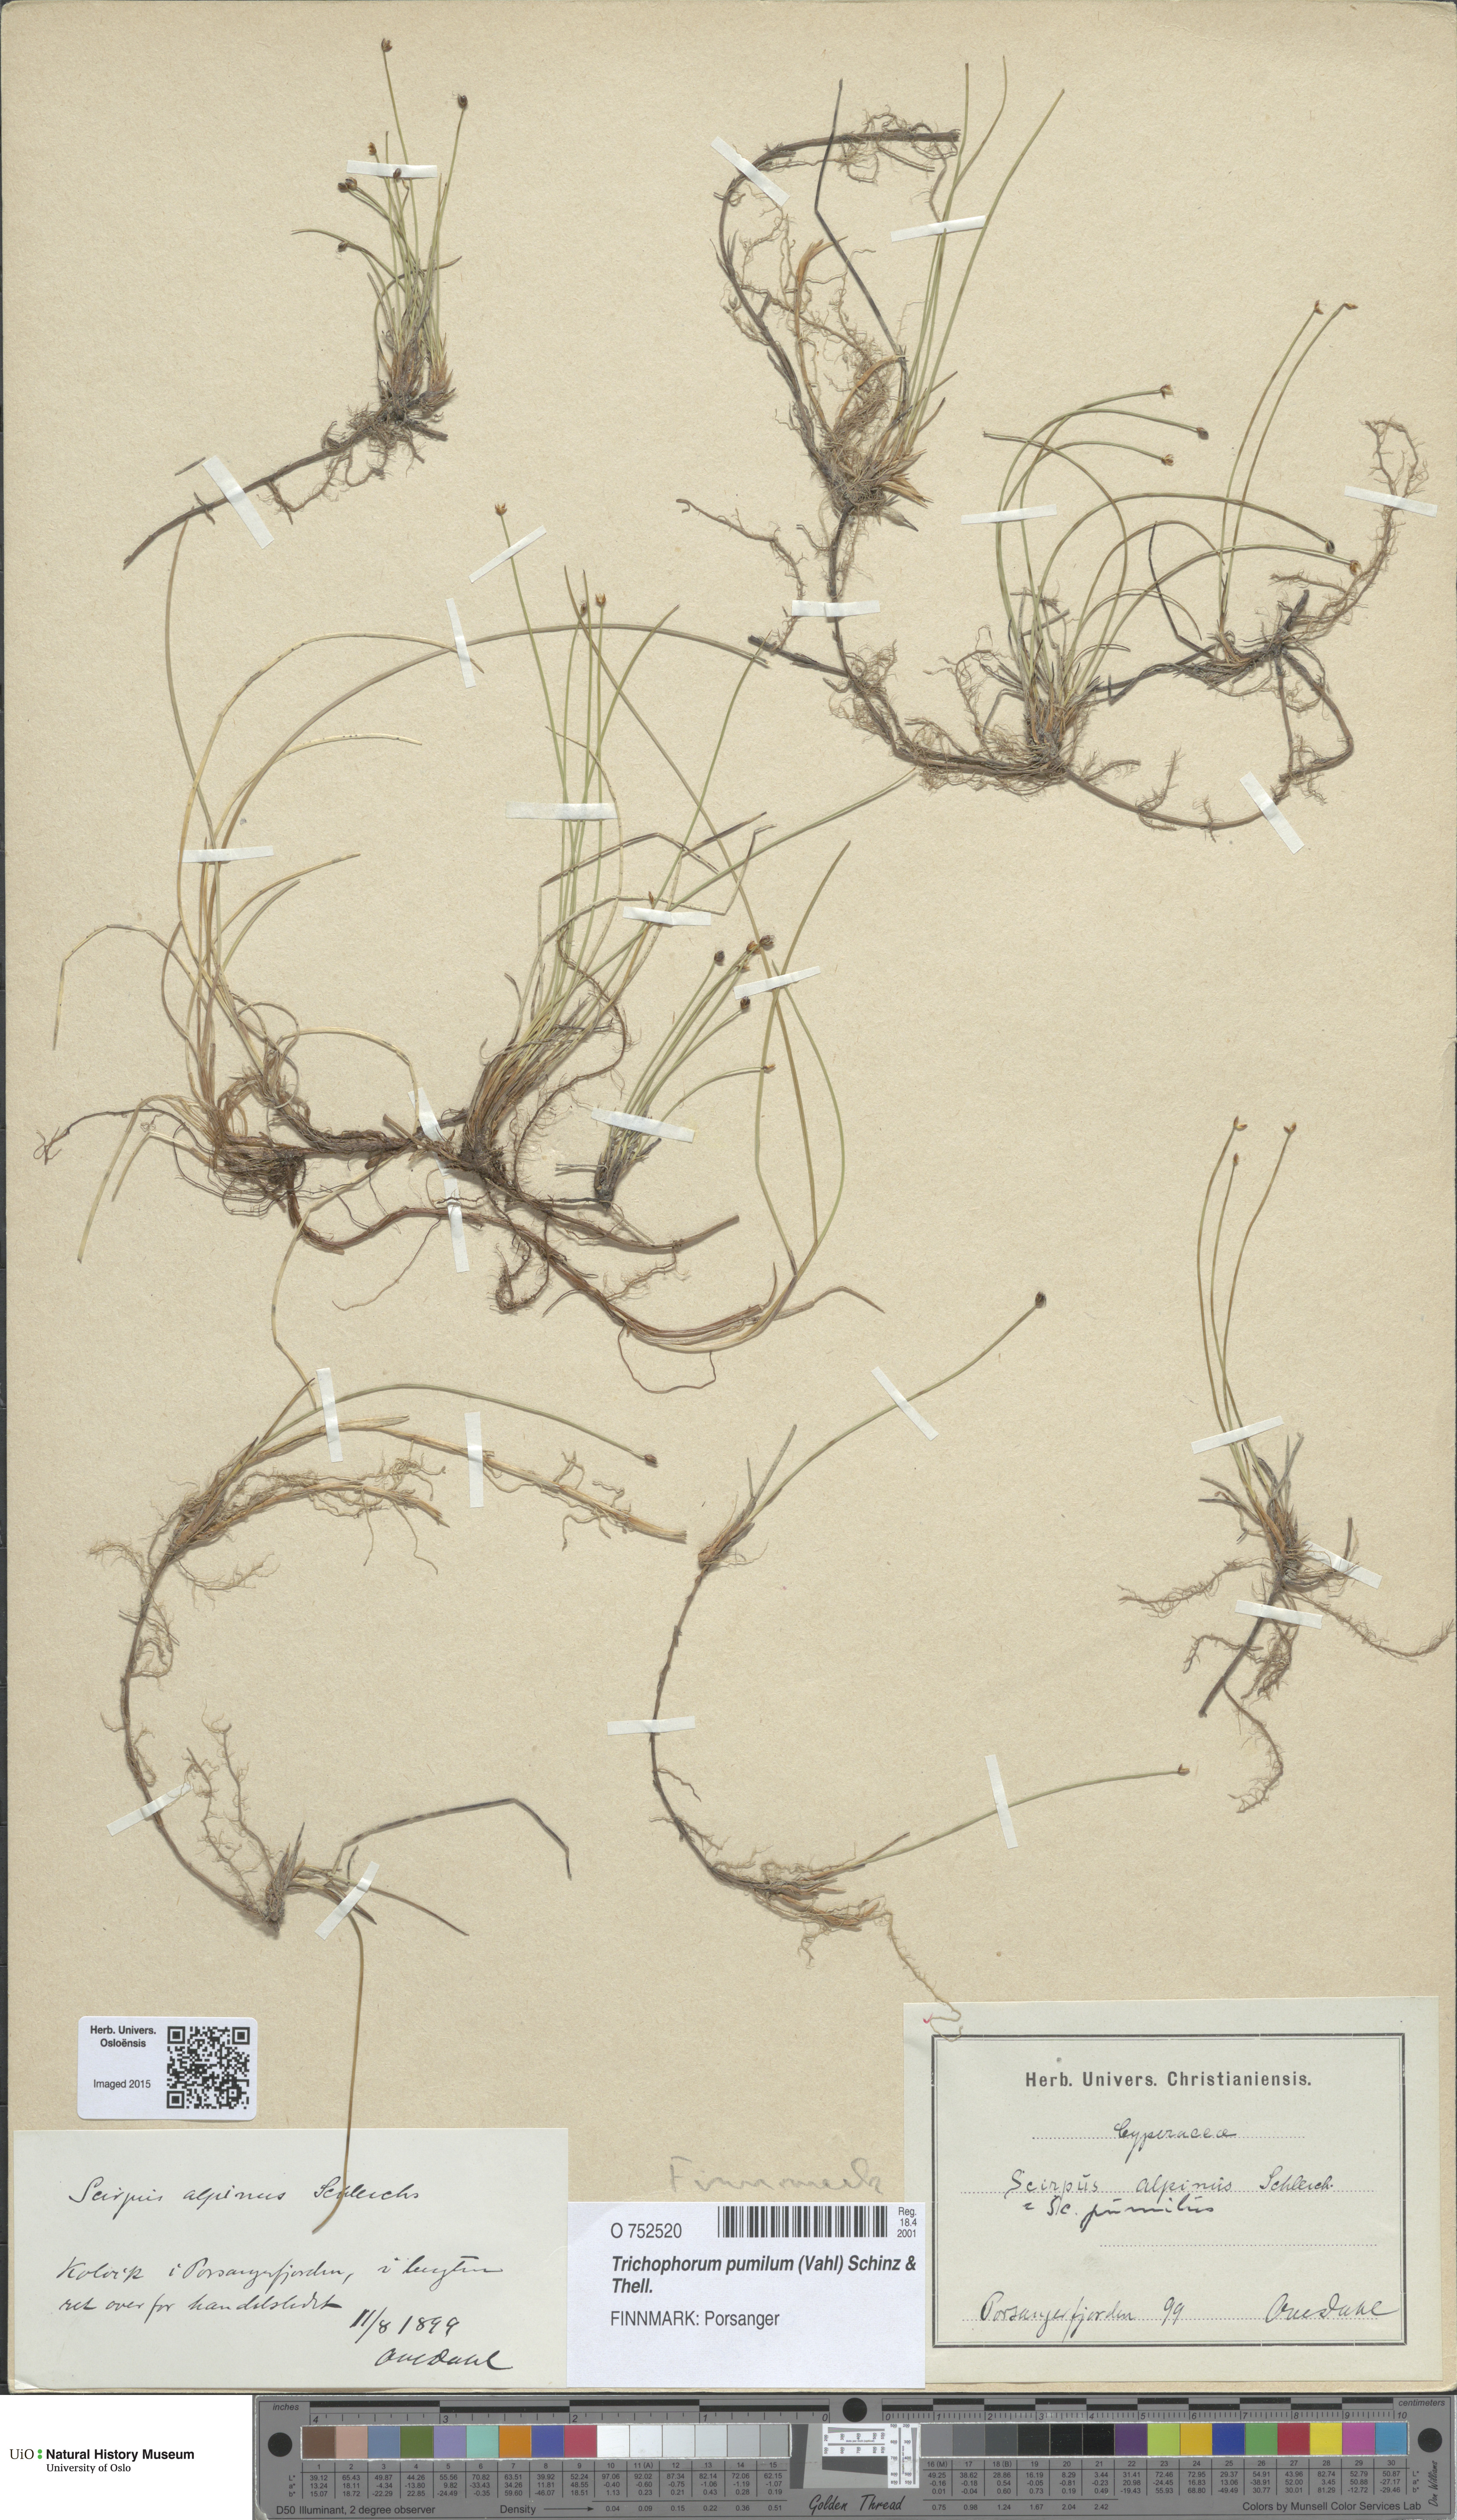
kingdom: Plantae
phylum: Tracheophyta
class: Liliopsida
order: Poales
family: Cyperaceae
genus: Trichophorum
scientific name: Trichophorum pumilum
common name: Rolland's bulrush
